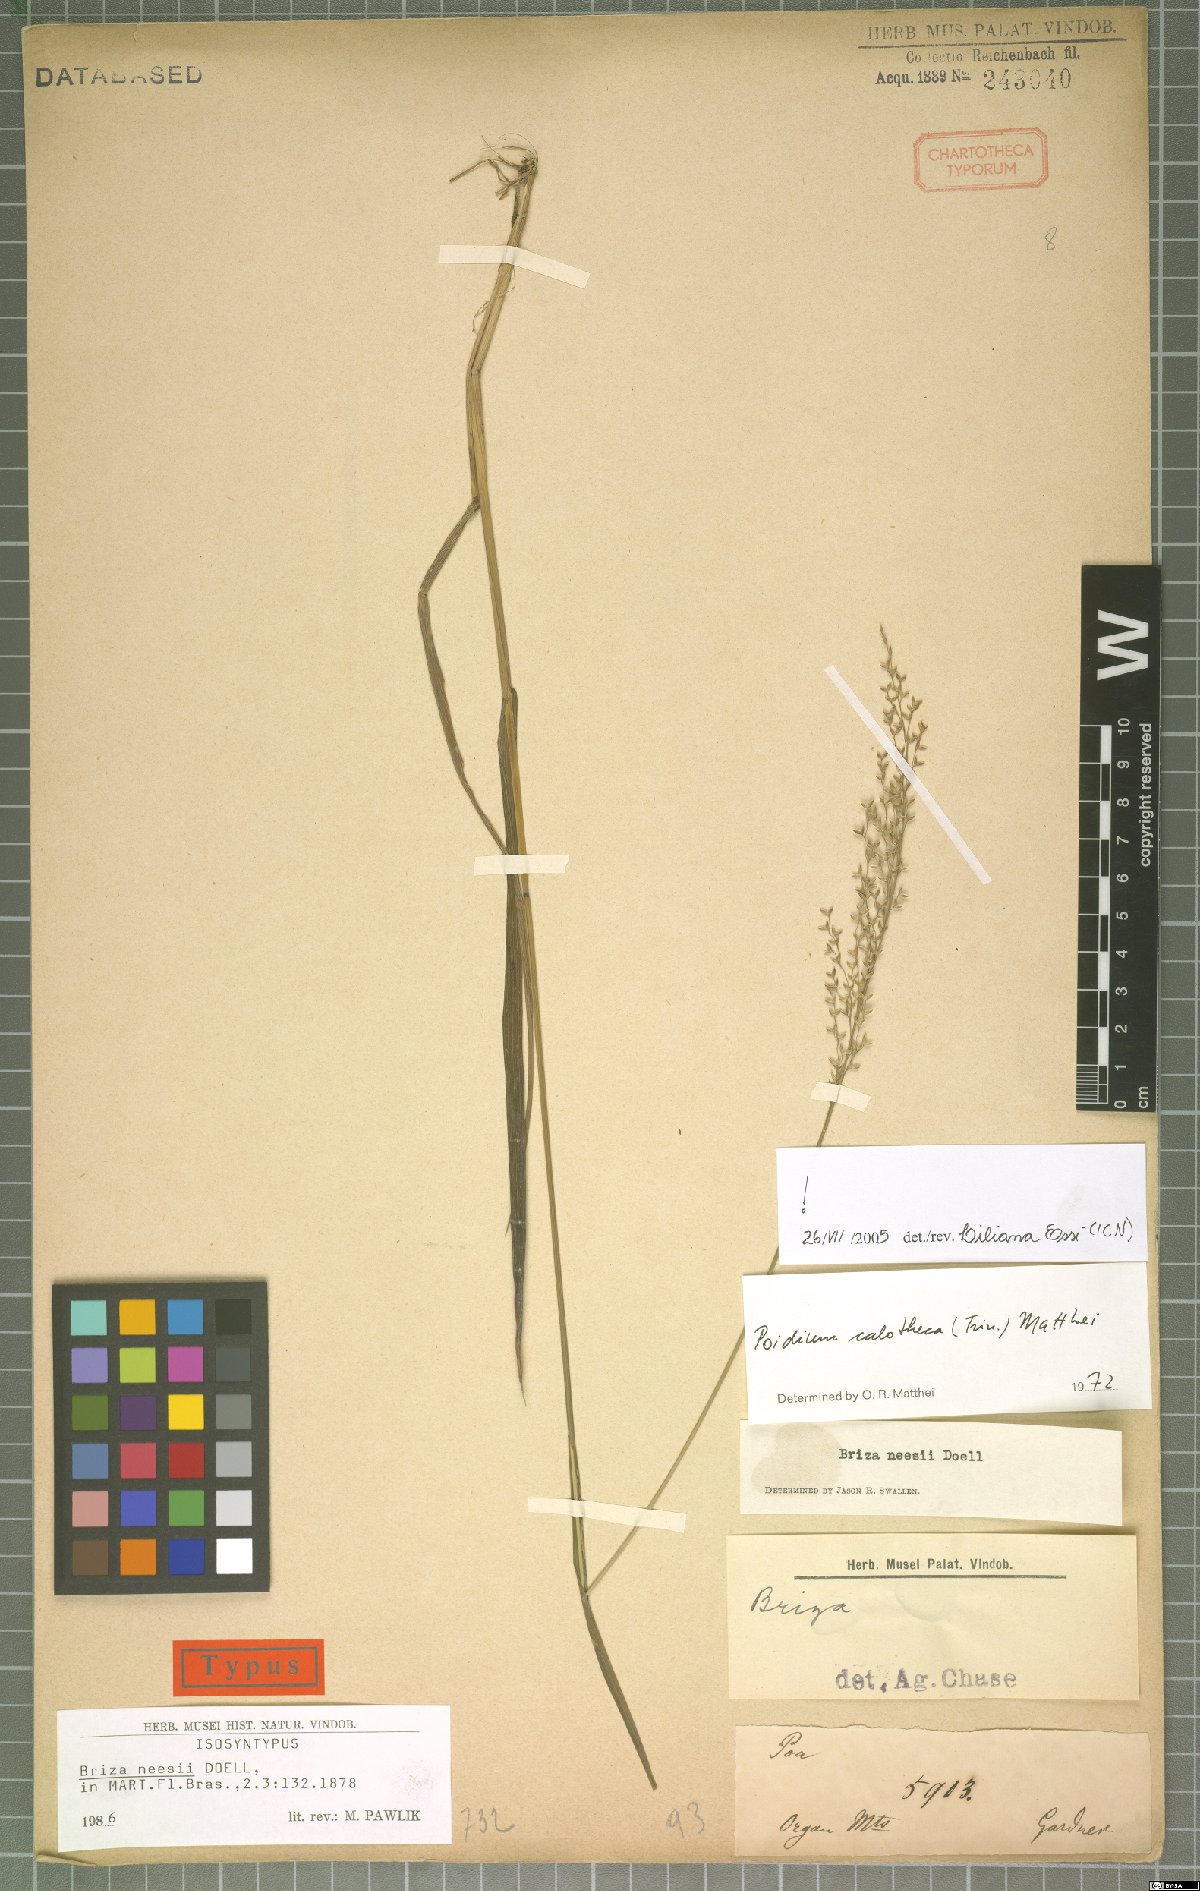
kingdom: Plantae
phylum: Tracheophyta
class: Liliopsida
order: Poales
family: Poaceae
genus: Poidium
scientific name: Poidium calotheca
